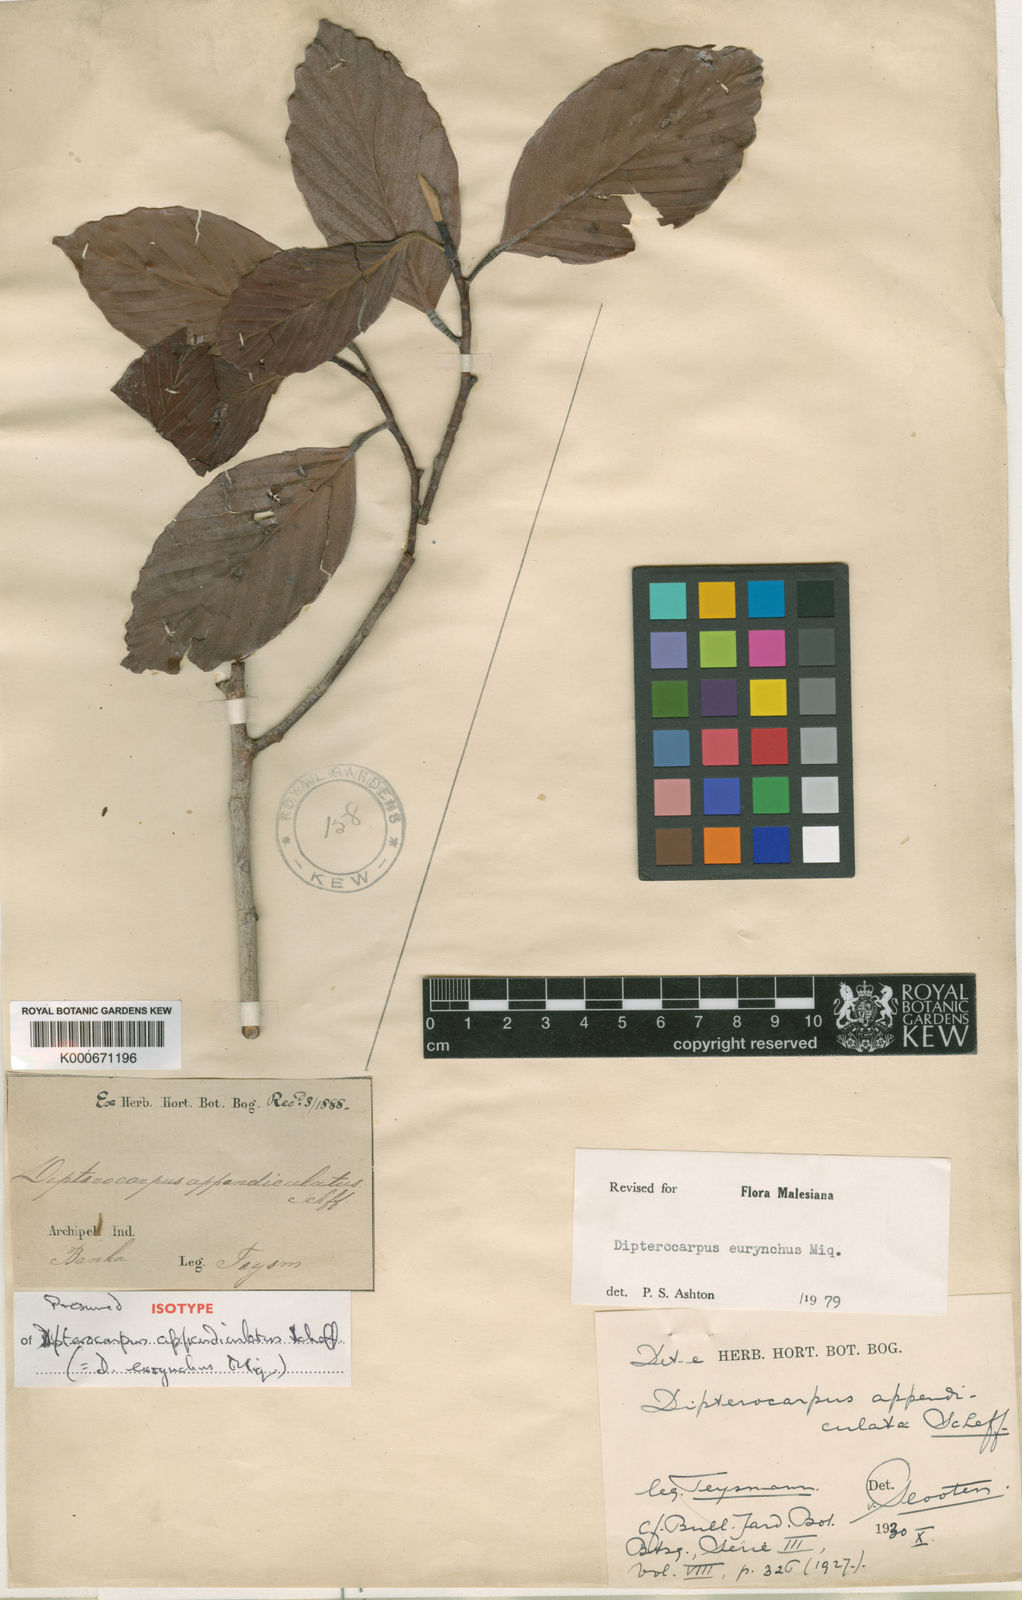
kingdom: Plantae
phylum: Tracheophyta
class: Magnoliopsida
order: Malvales
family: Dipterocarpaceae
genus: Dipterocarpus
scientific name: Dipterocarpus
